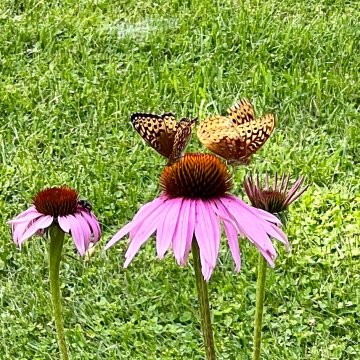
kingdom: Animalia
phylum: Arthropoda
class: Insecta
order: Lepidoptera
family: Nymphalidae
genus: Speyeria
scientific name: Speyeria cybele
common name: Great Spangled Fritillary
